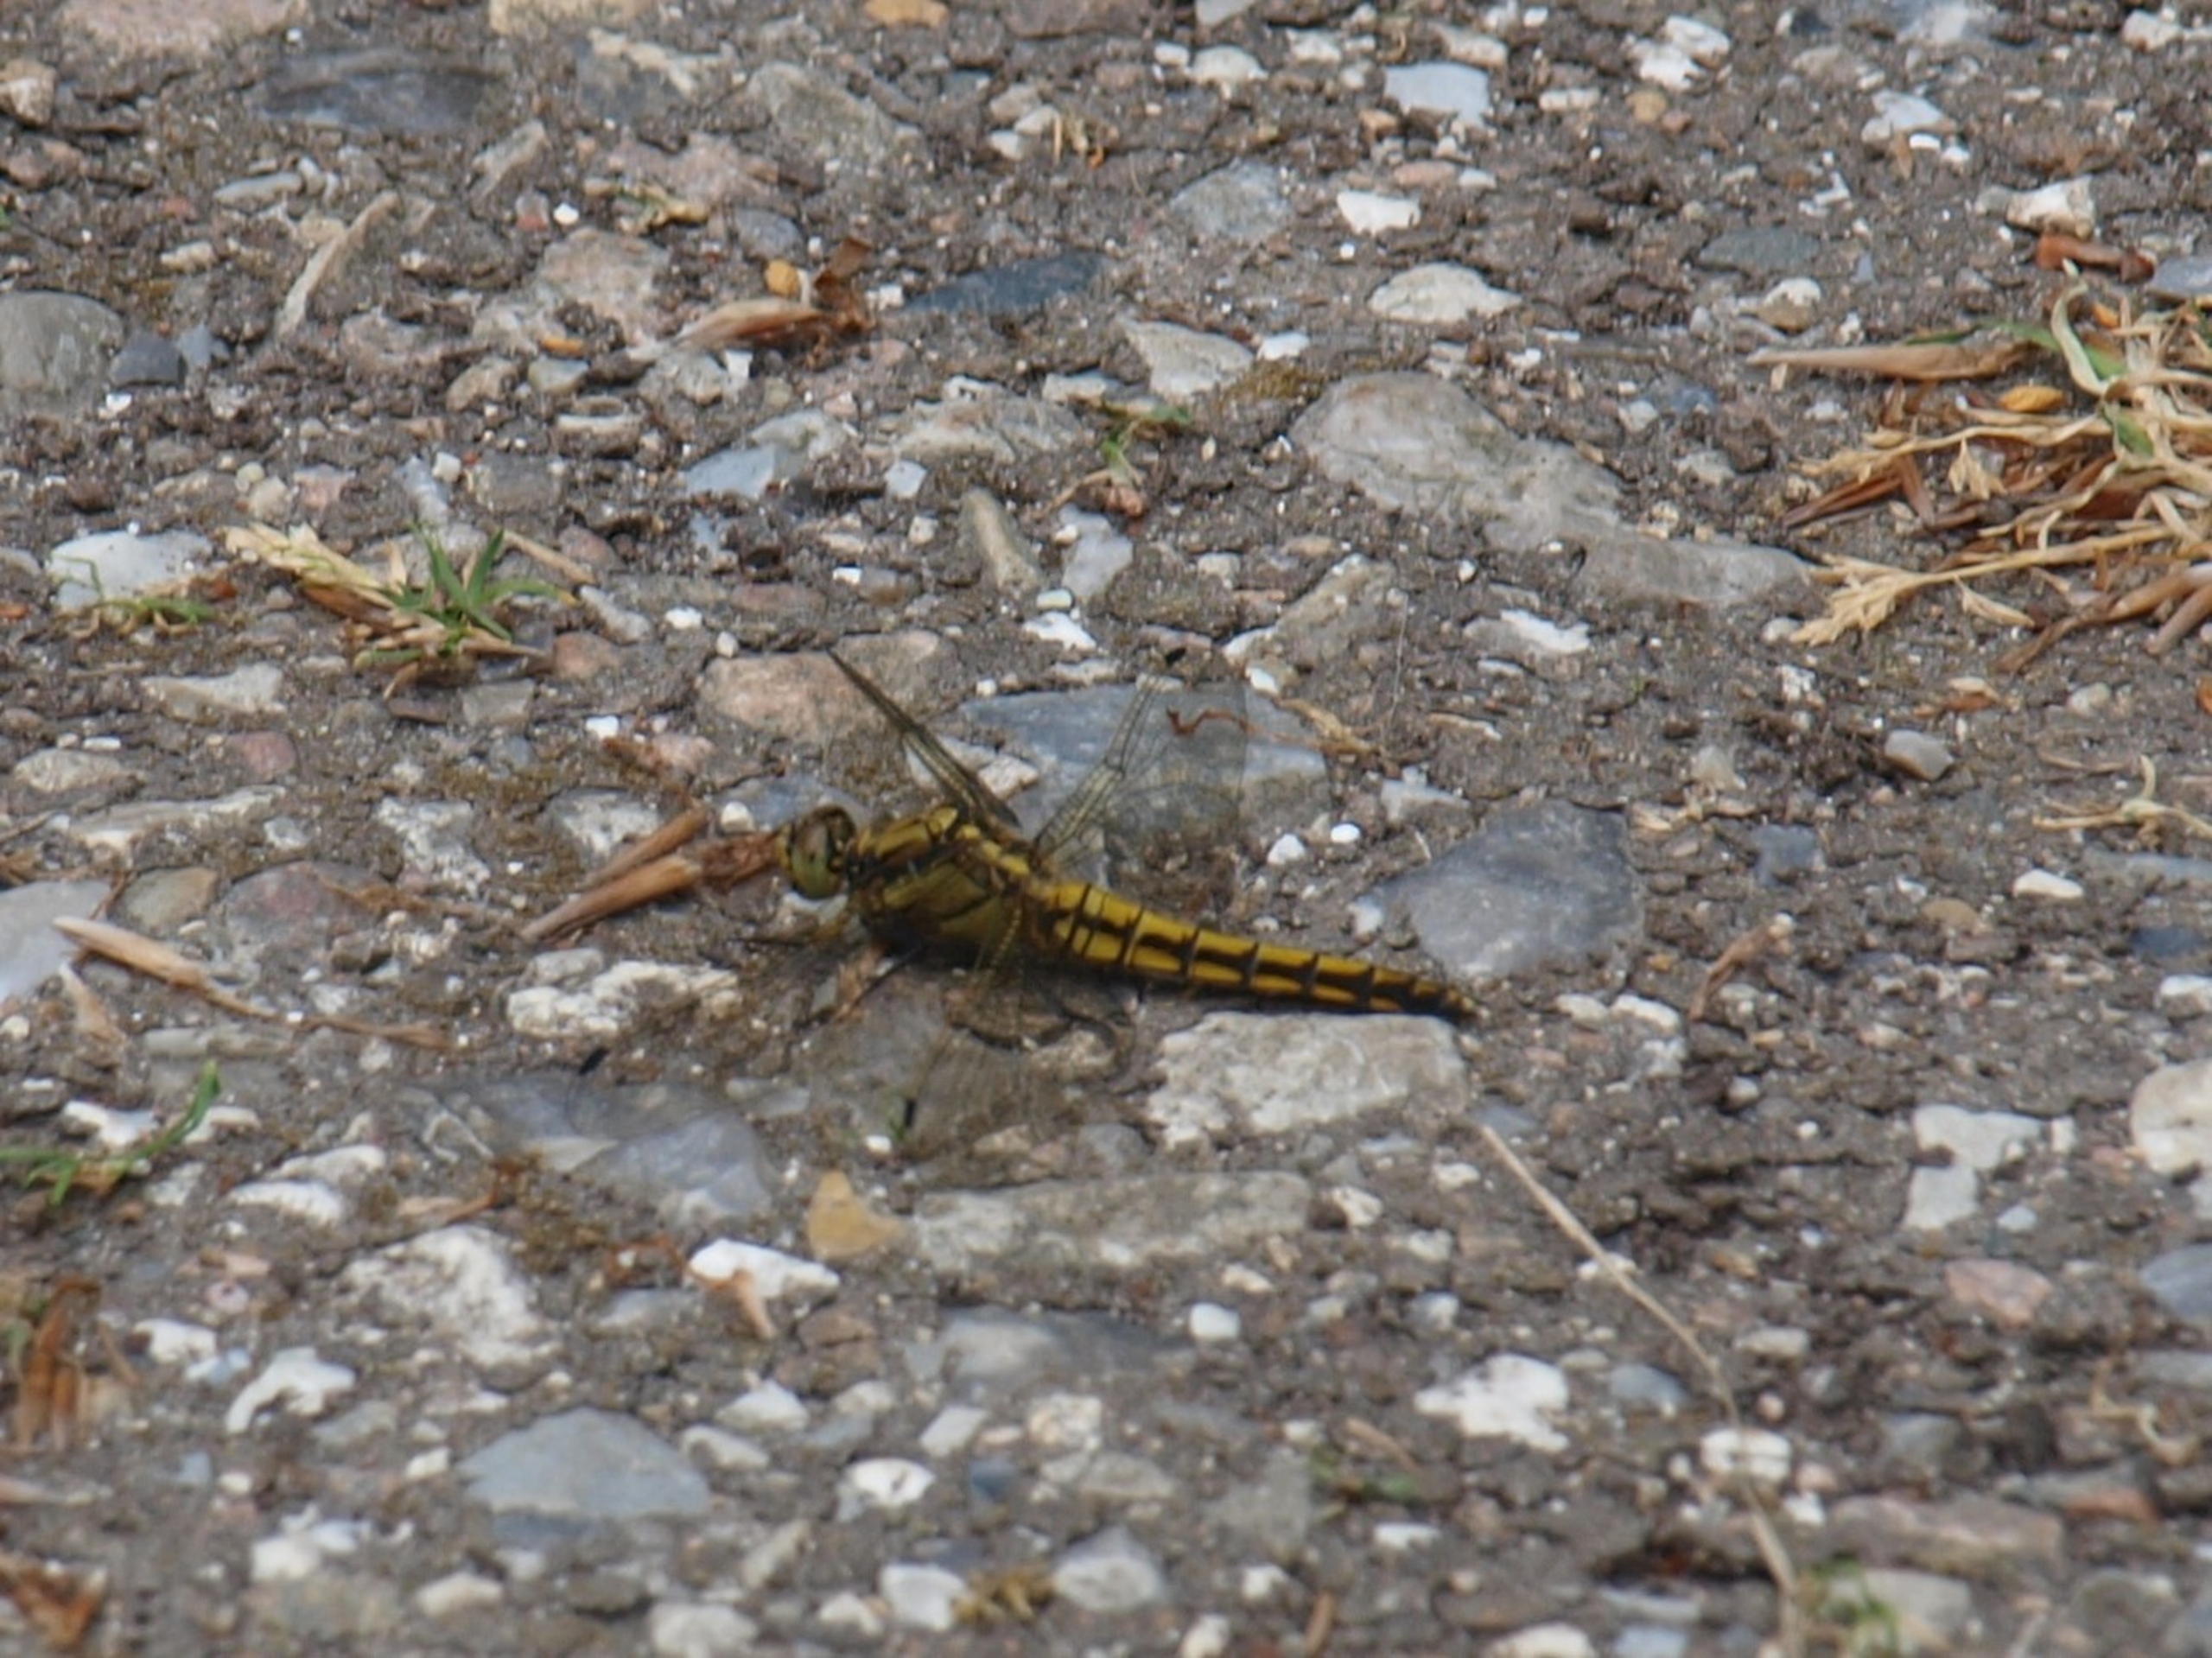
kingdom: Animalia
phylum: Arthropoda
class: Insecta
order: Odonata
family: Libellulidae
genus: Orthetrum
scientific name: Orthetrum cancellatum
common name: Stor blåpil
